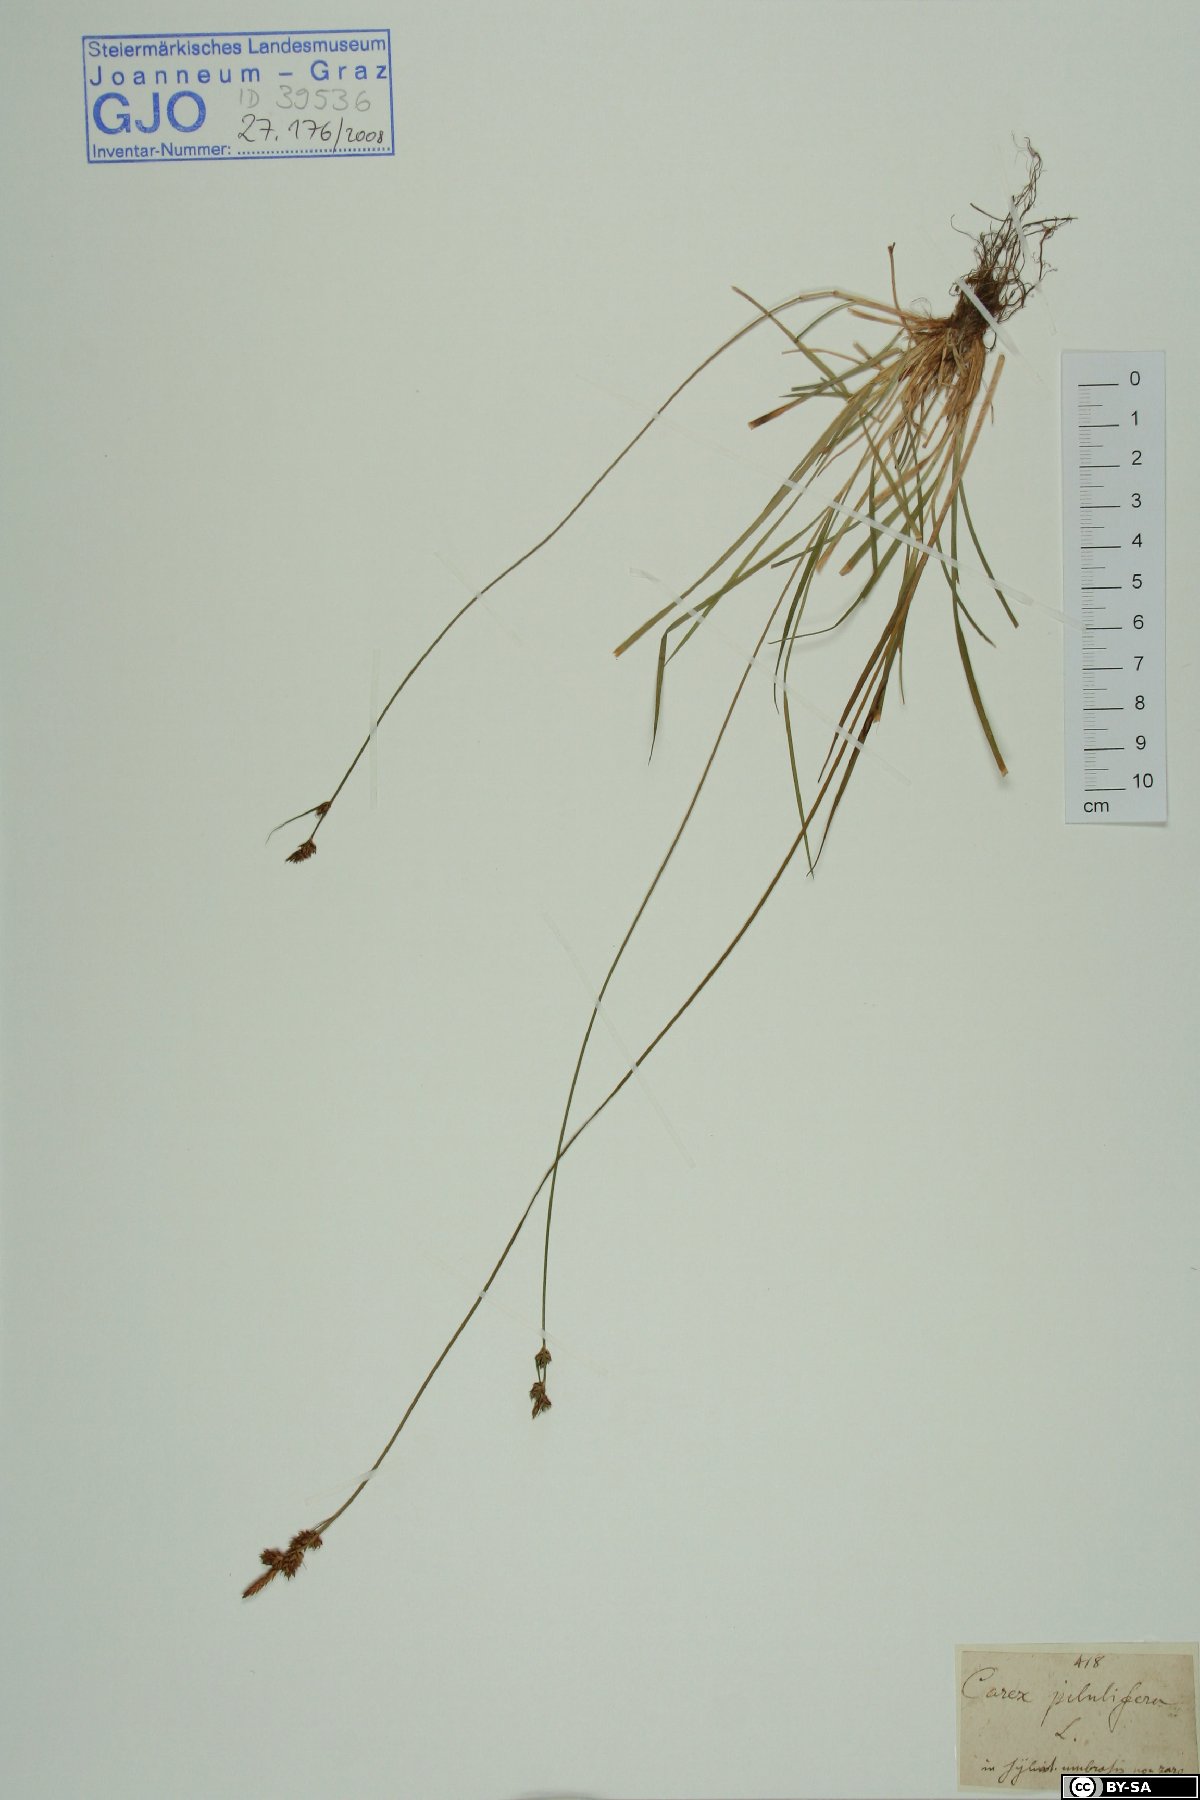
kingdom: Plantae
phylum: Tracheophyta
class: Liliopsida
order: Poales
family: Cyperaceae
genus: Carex
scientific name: Carex pilulifera
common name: Pill sedge
